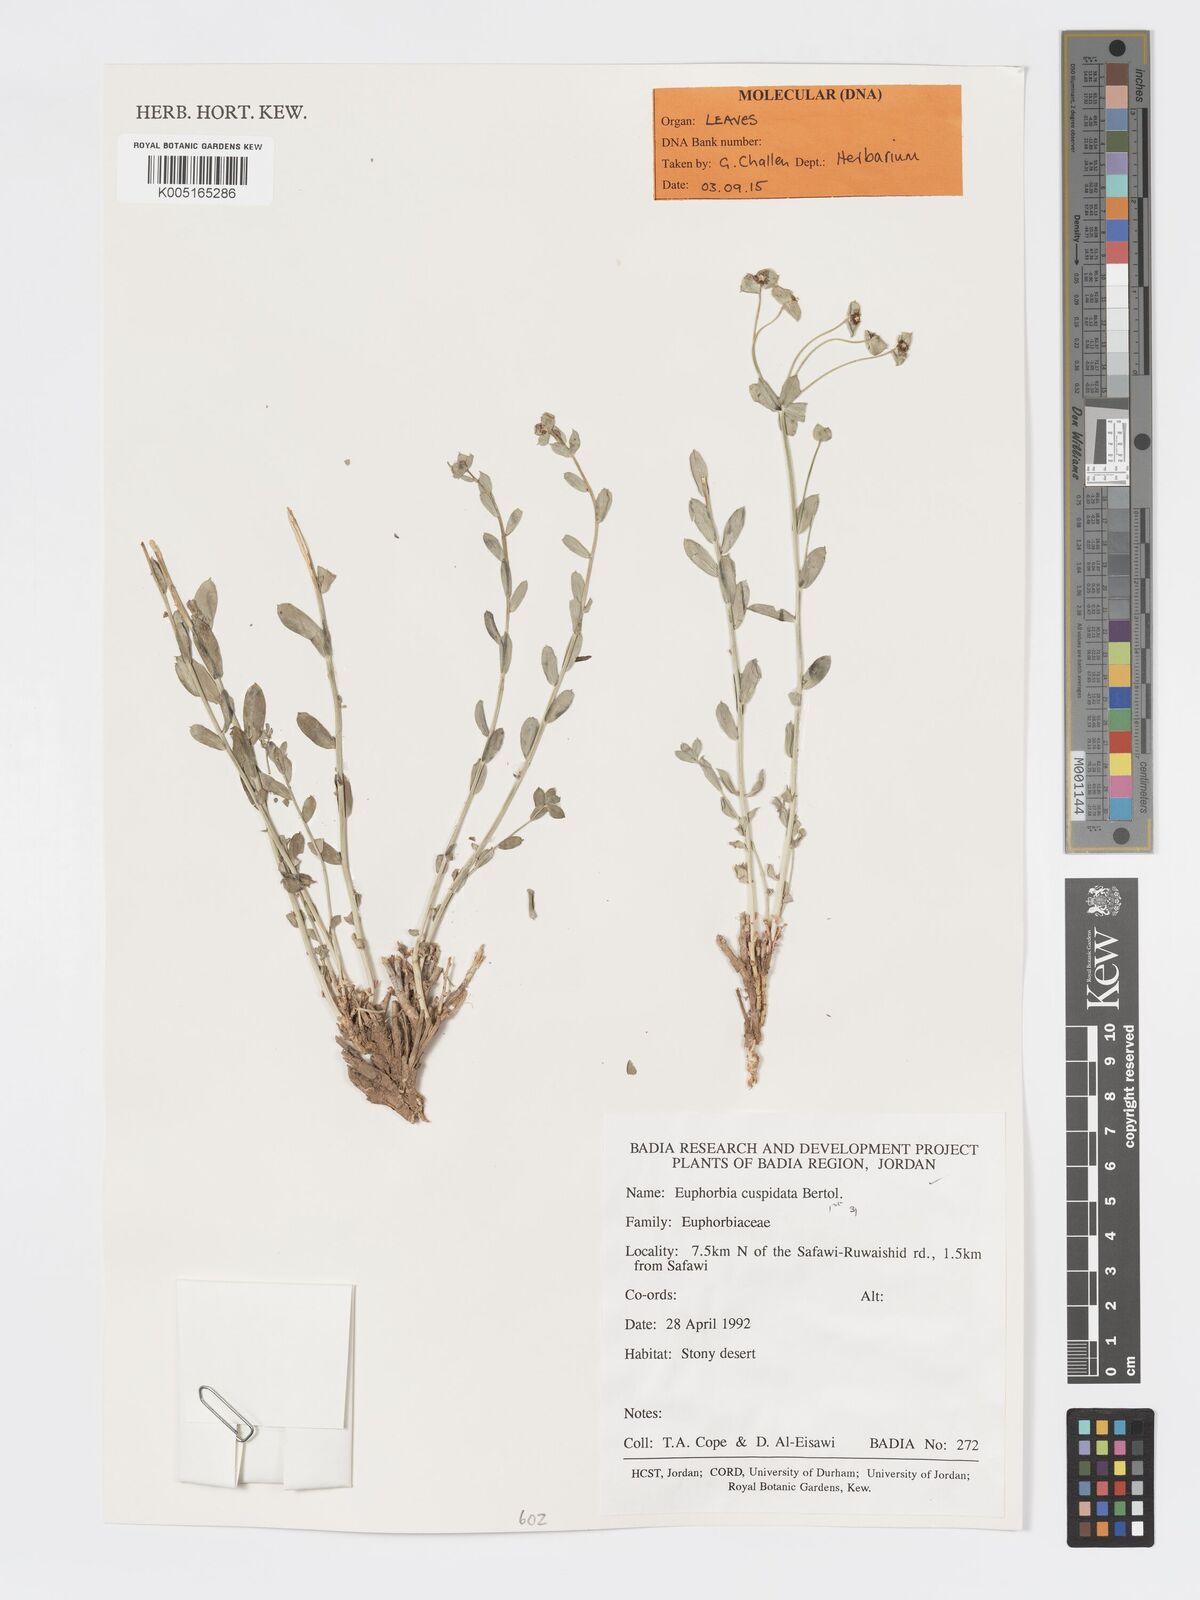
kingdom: Plantae
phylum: Tracheophyta
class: Magnoliopsida
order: Malpighiales
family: Euphorbiaceae
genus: Euphorbia
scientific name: Euphorbia
